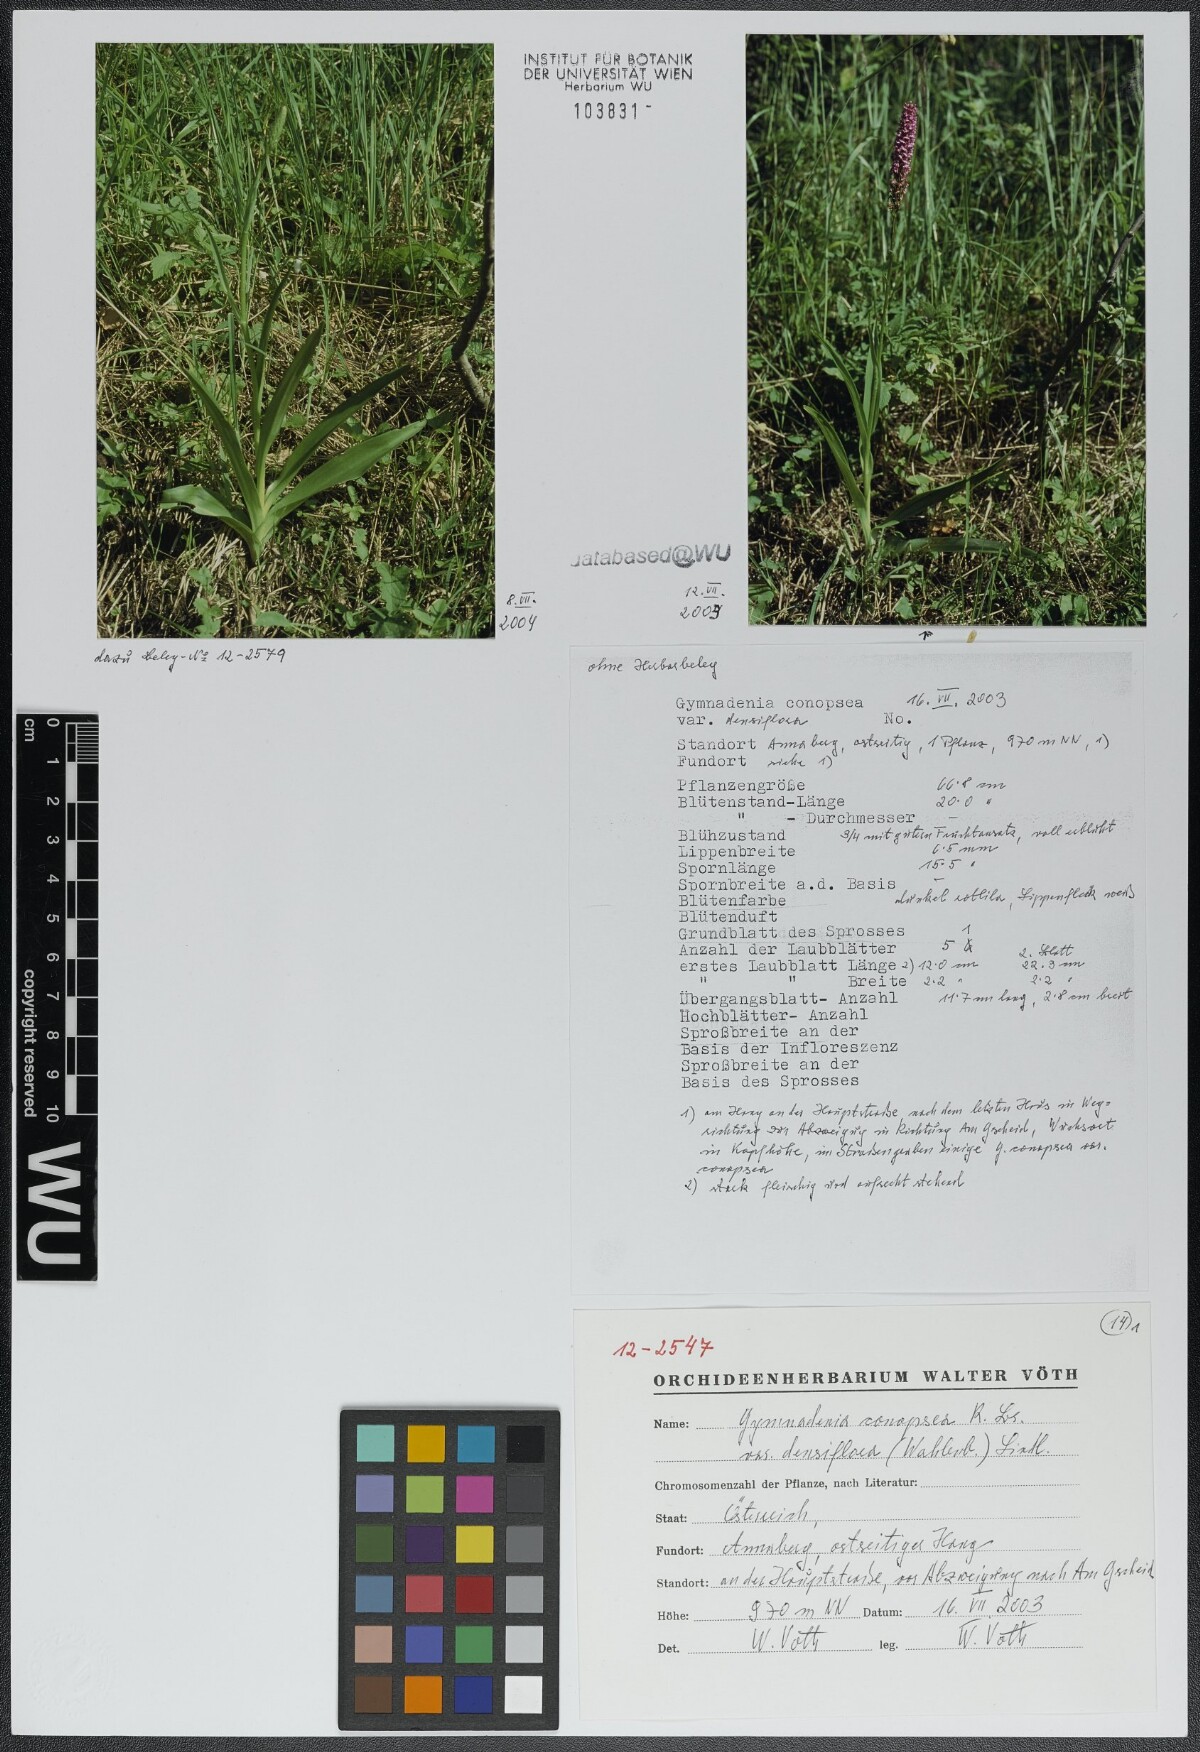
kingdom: Plantae
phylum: Tracheophyta
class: Liliopsida
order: Asparagales
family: Orchidaceae
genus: Gymnadenia
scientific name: Gymnadenia conopsea
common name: Fragrant orchid
